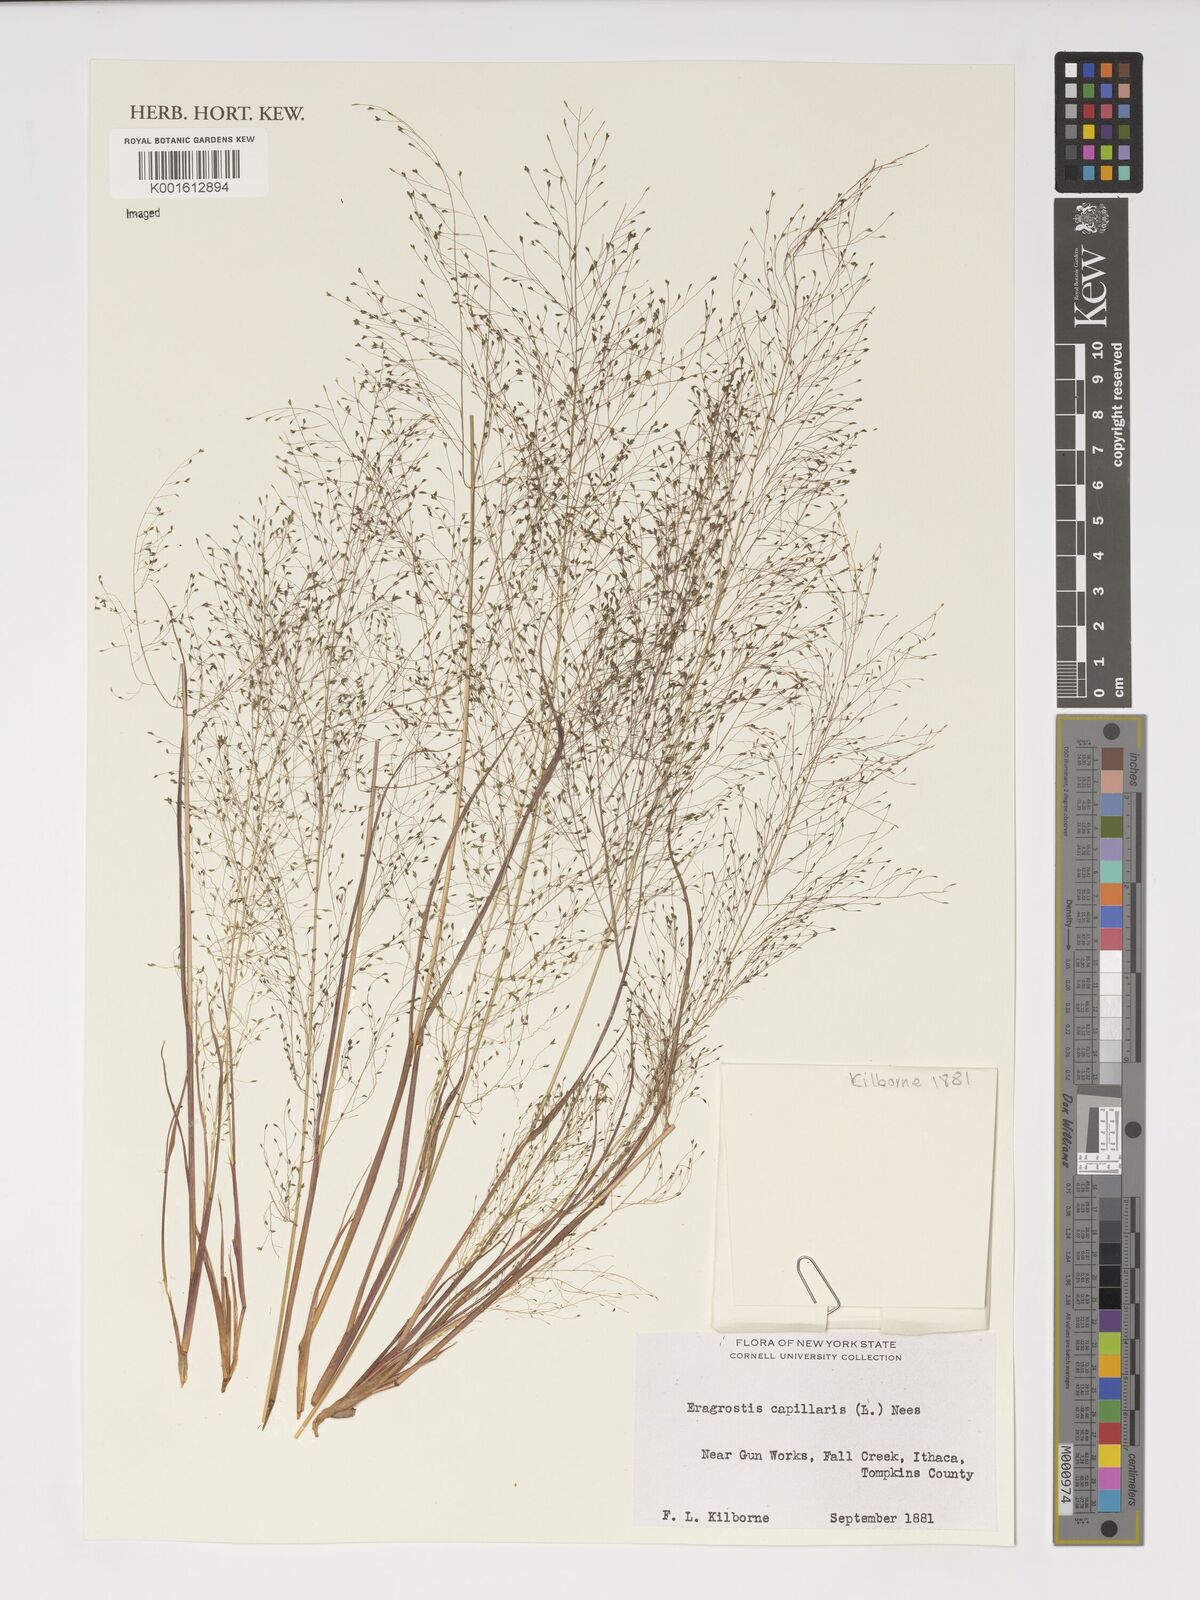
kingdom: Plantae
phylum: Tracheophyta
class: Liliopsida
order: Poales
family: Poaceae
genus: Eragrostis
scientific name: Eragrostis capillaris
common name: Hair-like lovegrass
